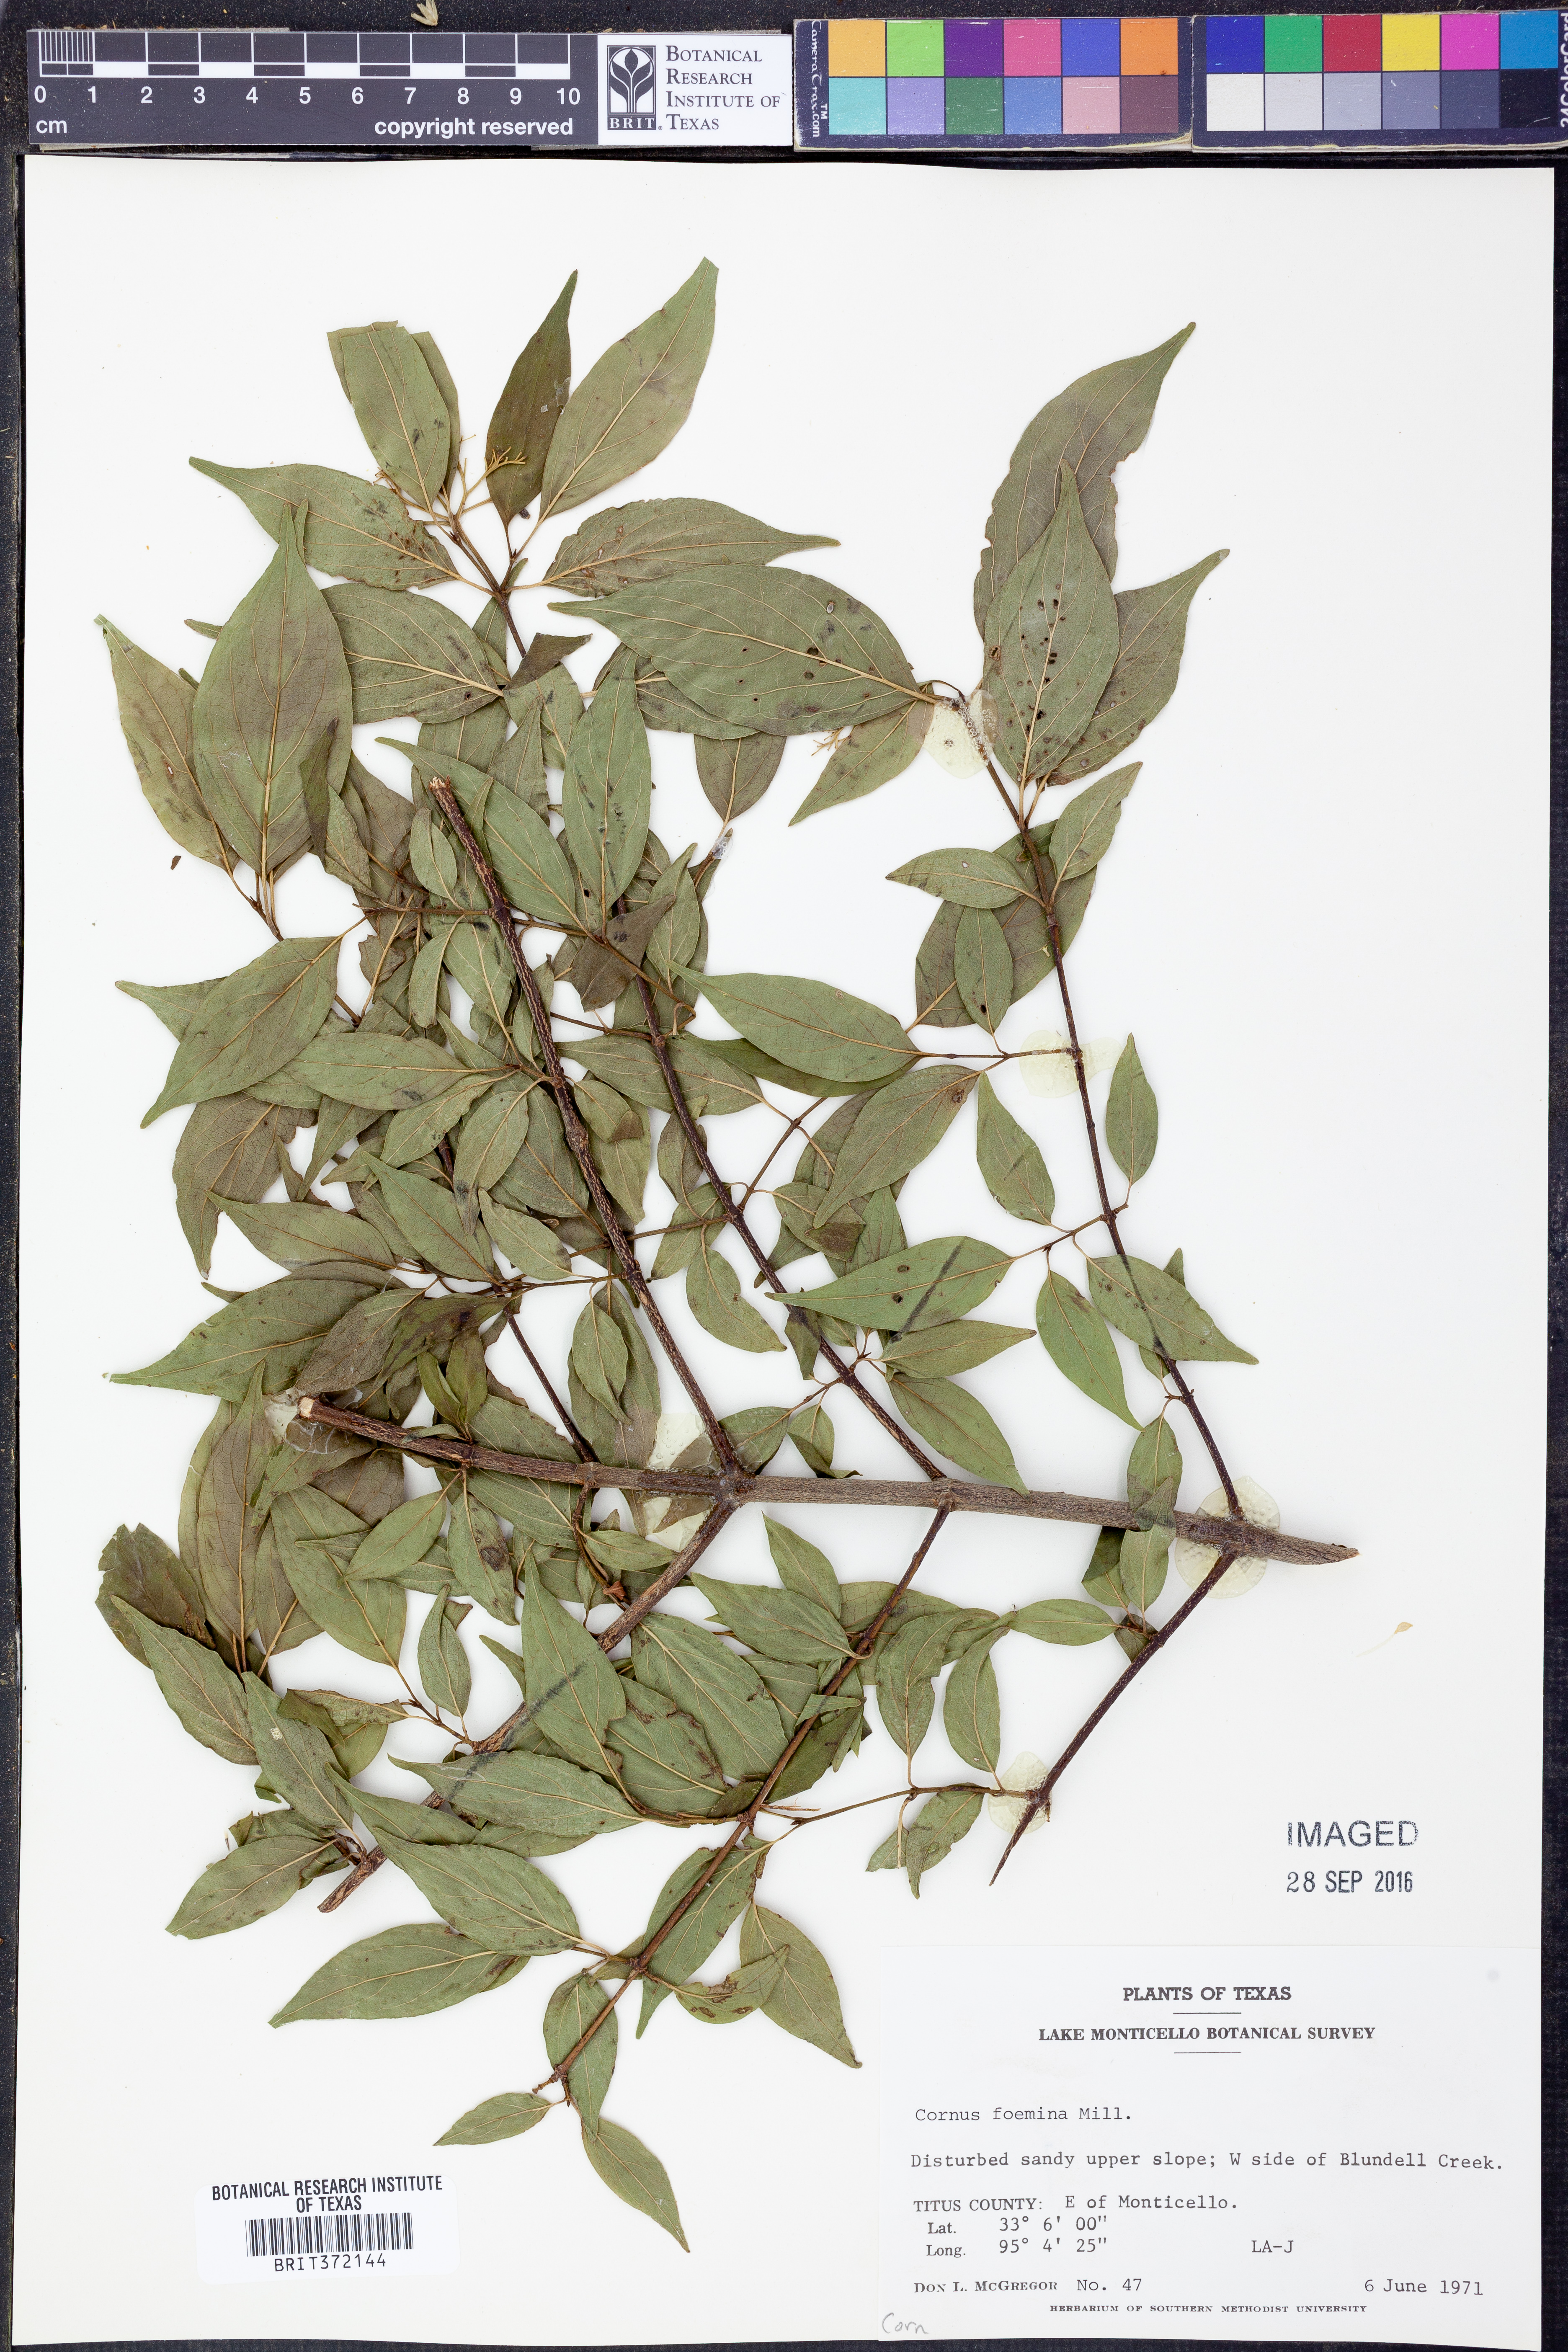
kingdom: Plantae
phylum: Tracheophyta
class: Magnoliopsida
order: Cornales
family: Cornaceae
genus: Cornus
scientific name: Cornus foemina
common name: Swamp dogwood
